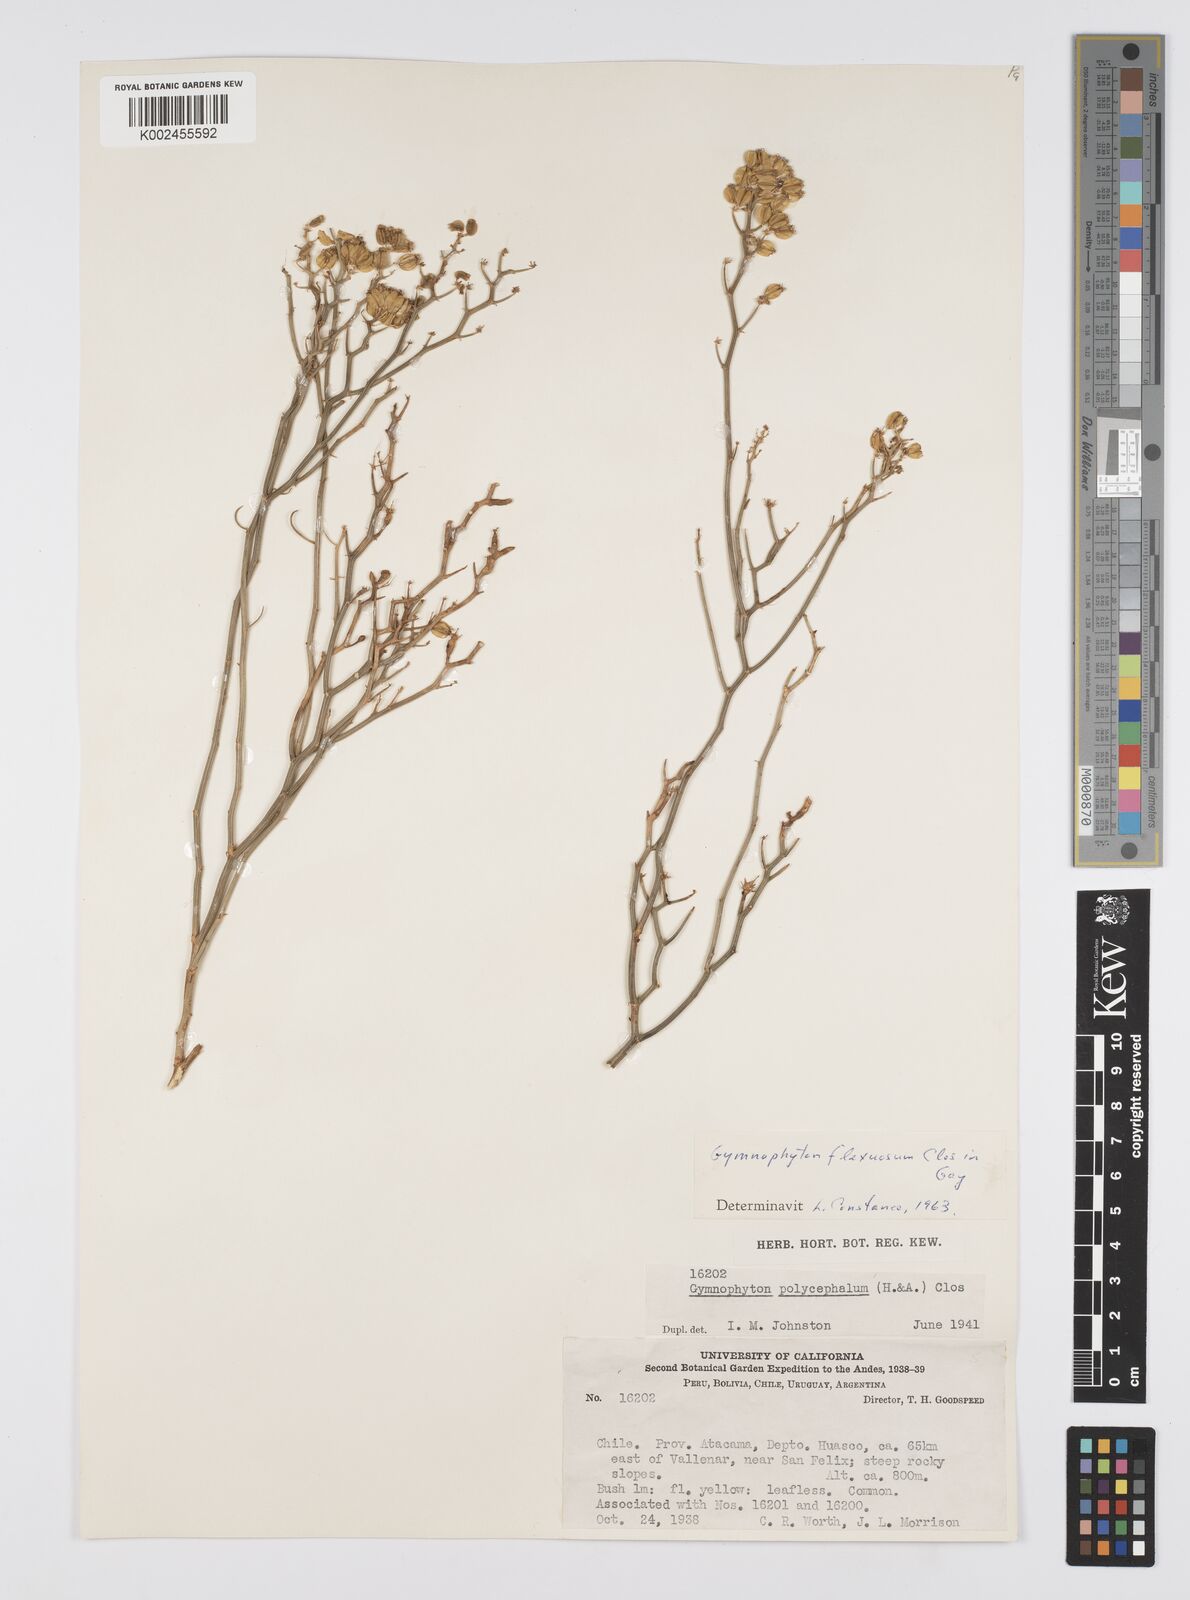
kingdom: Plantae
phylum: Tracheophyta
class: Magnoliopsida
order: Apiales
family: Apiaceae
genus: Gymnophyton
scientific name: Gymnophyton flexuosum
